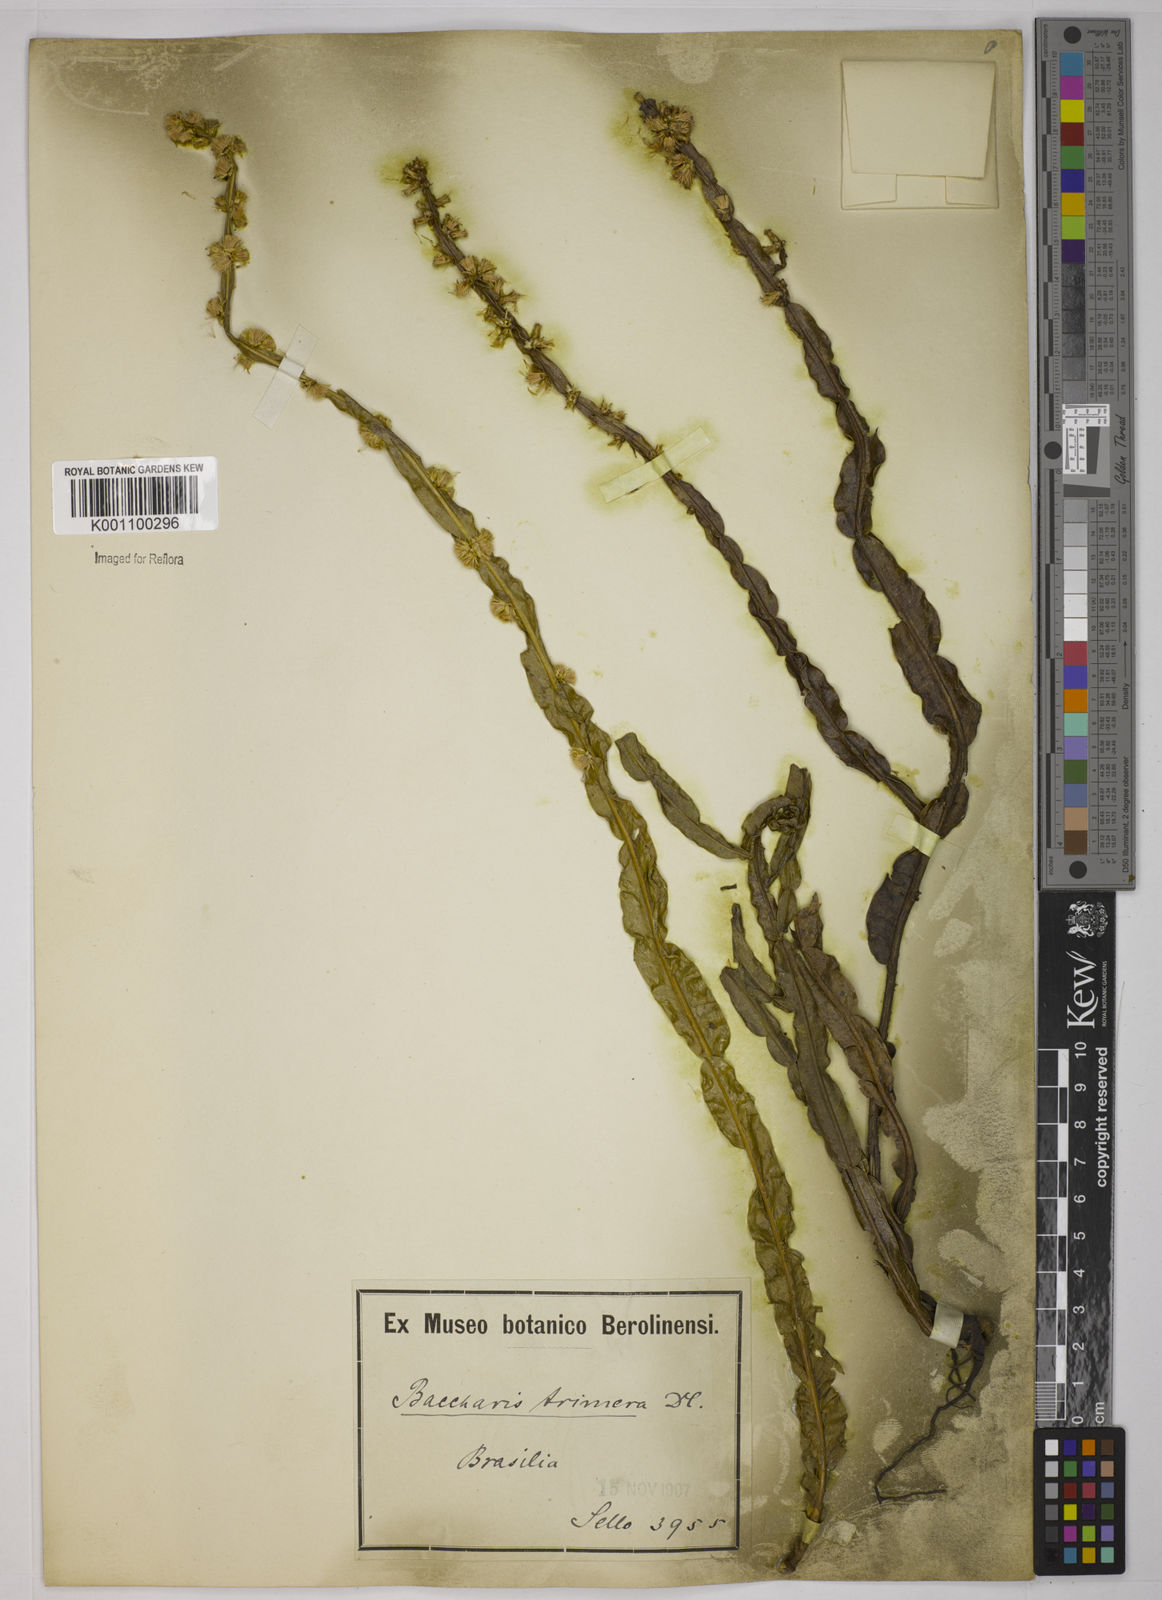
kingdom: Plantae
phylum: Tracheophyta
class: Magnoliopsida
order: Asterales
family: Asteraceae
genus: Baccharis
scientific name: Baccharis trimera
